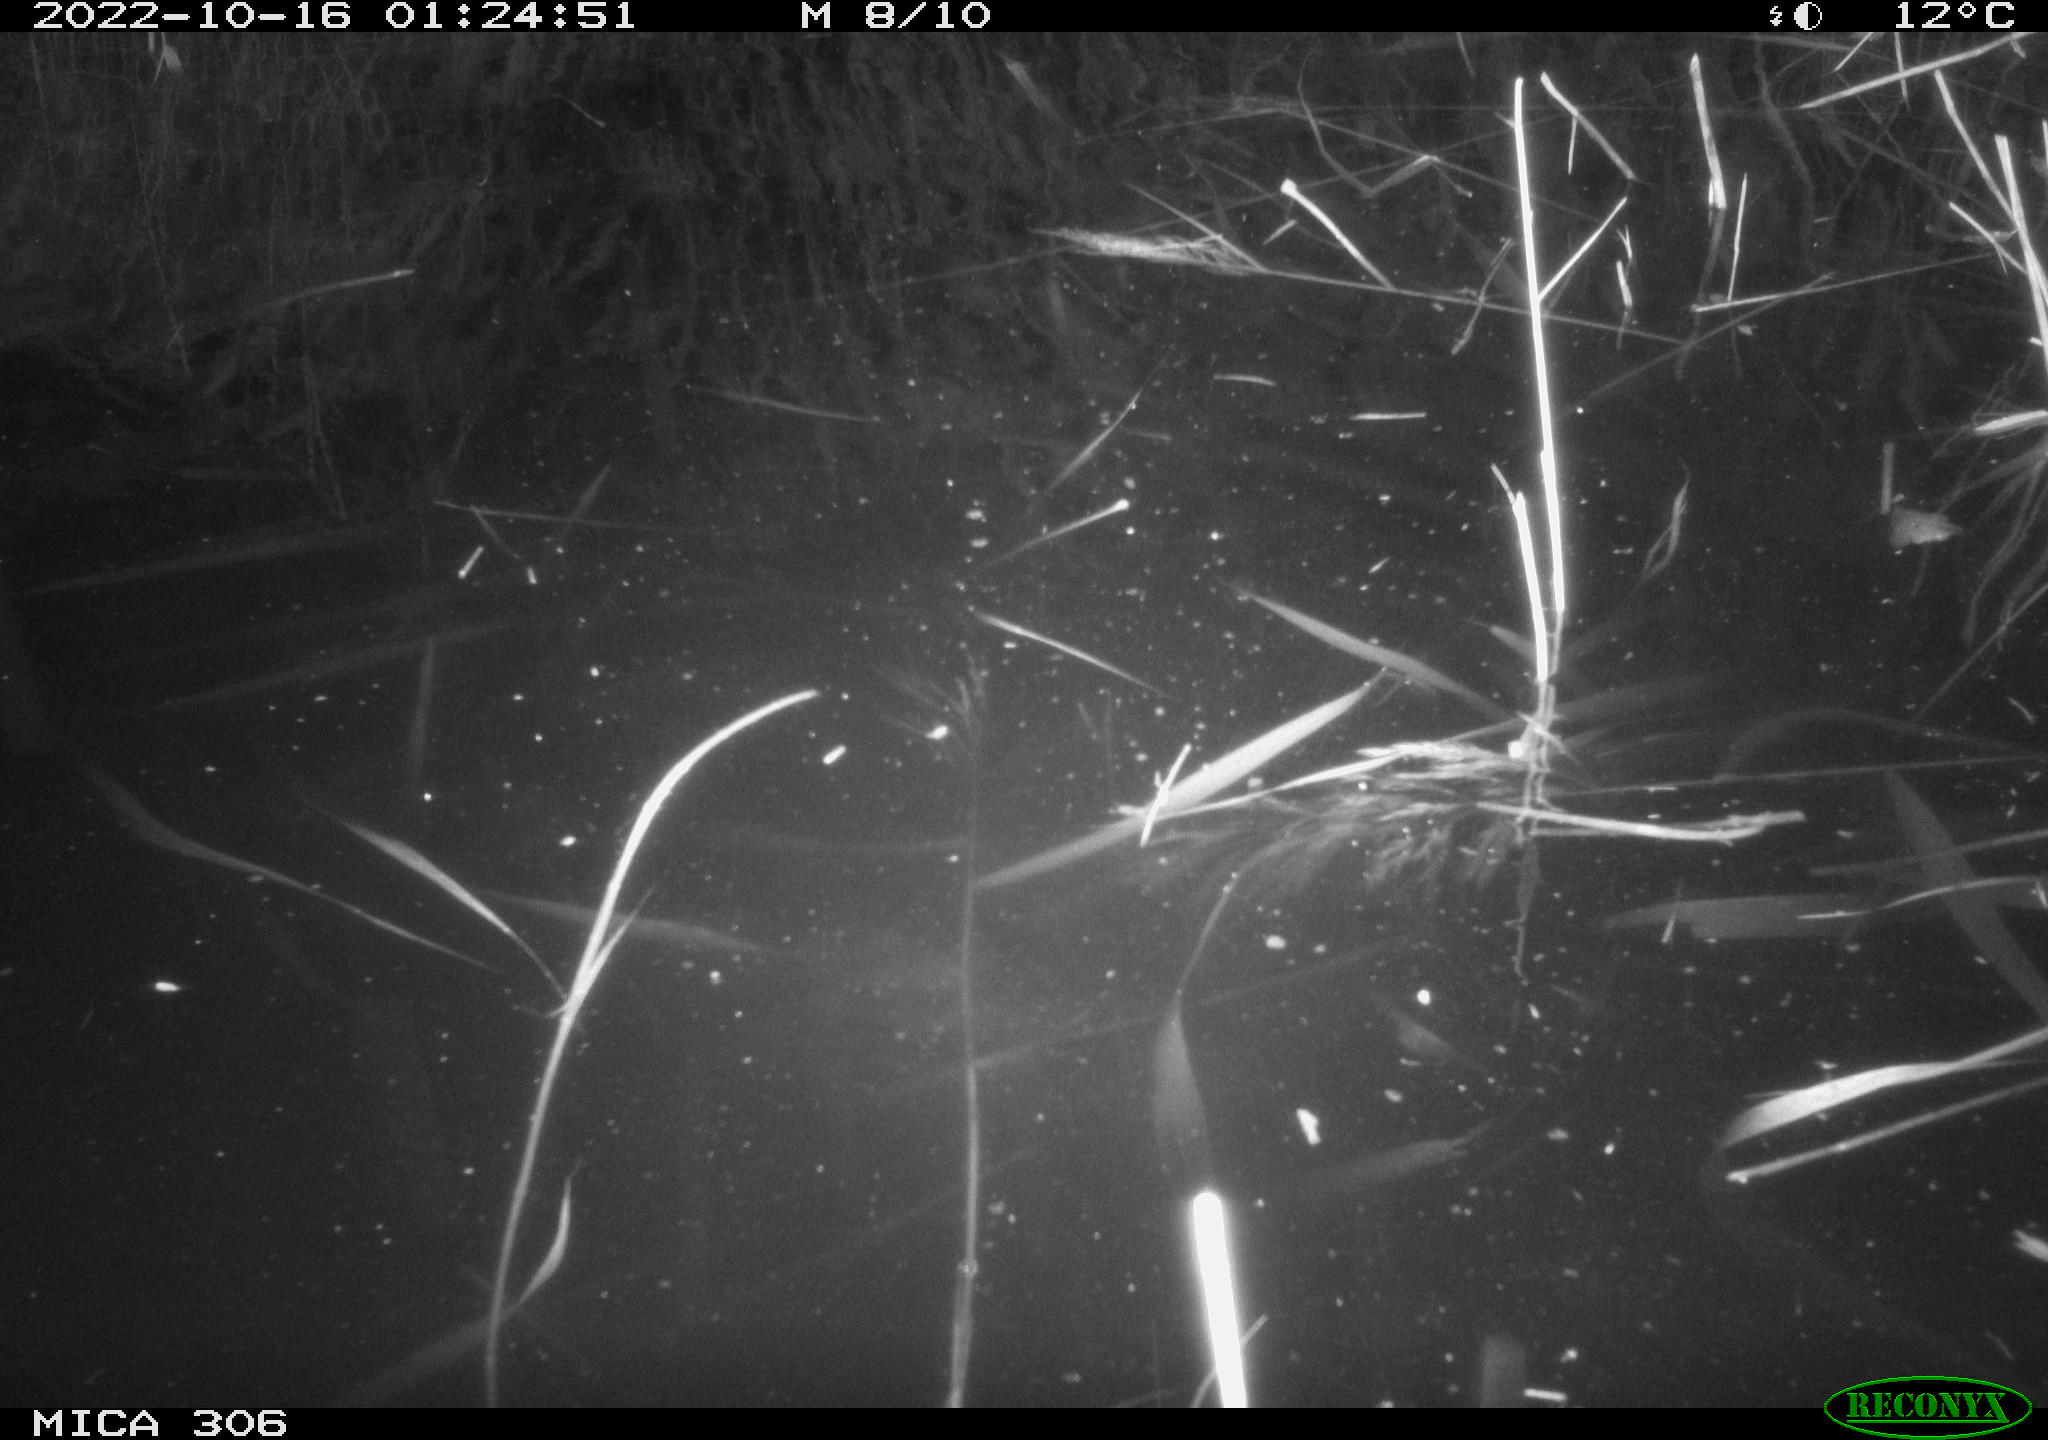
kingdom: Animalia
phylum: Chordata
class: Mammalia
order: Rodentia
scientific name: Rodentia
